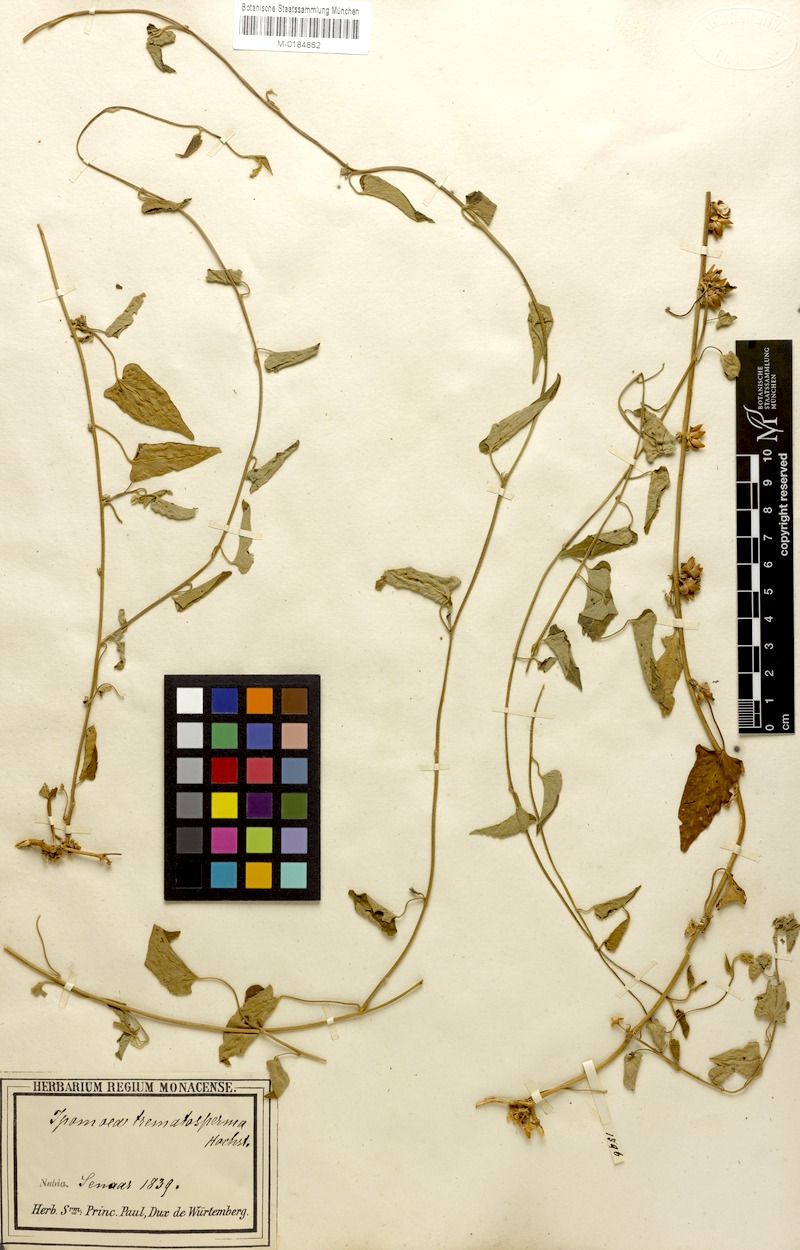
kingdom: Plantae
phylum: Tracheophyta
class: Magnoliopsida
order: Solanales
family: Convolvulaceae
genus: Ipomoea
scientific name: Ipomoea purpurea
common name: Common morning-glory
